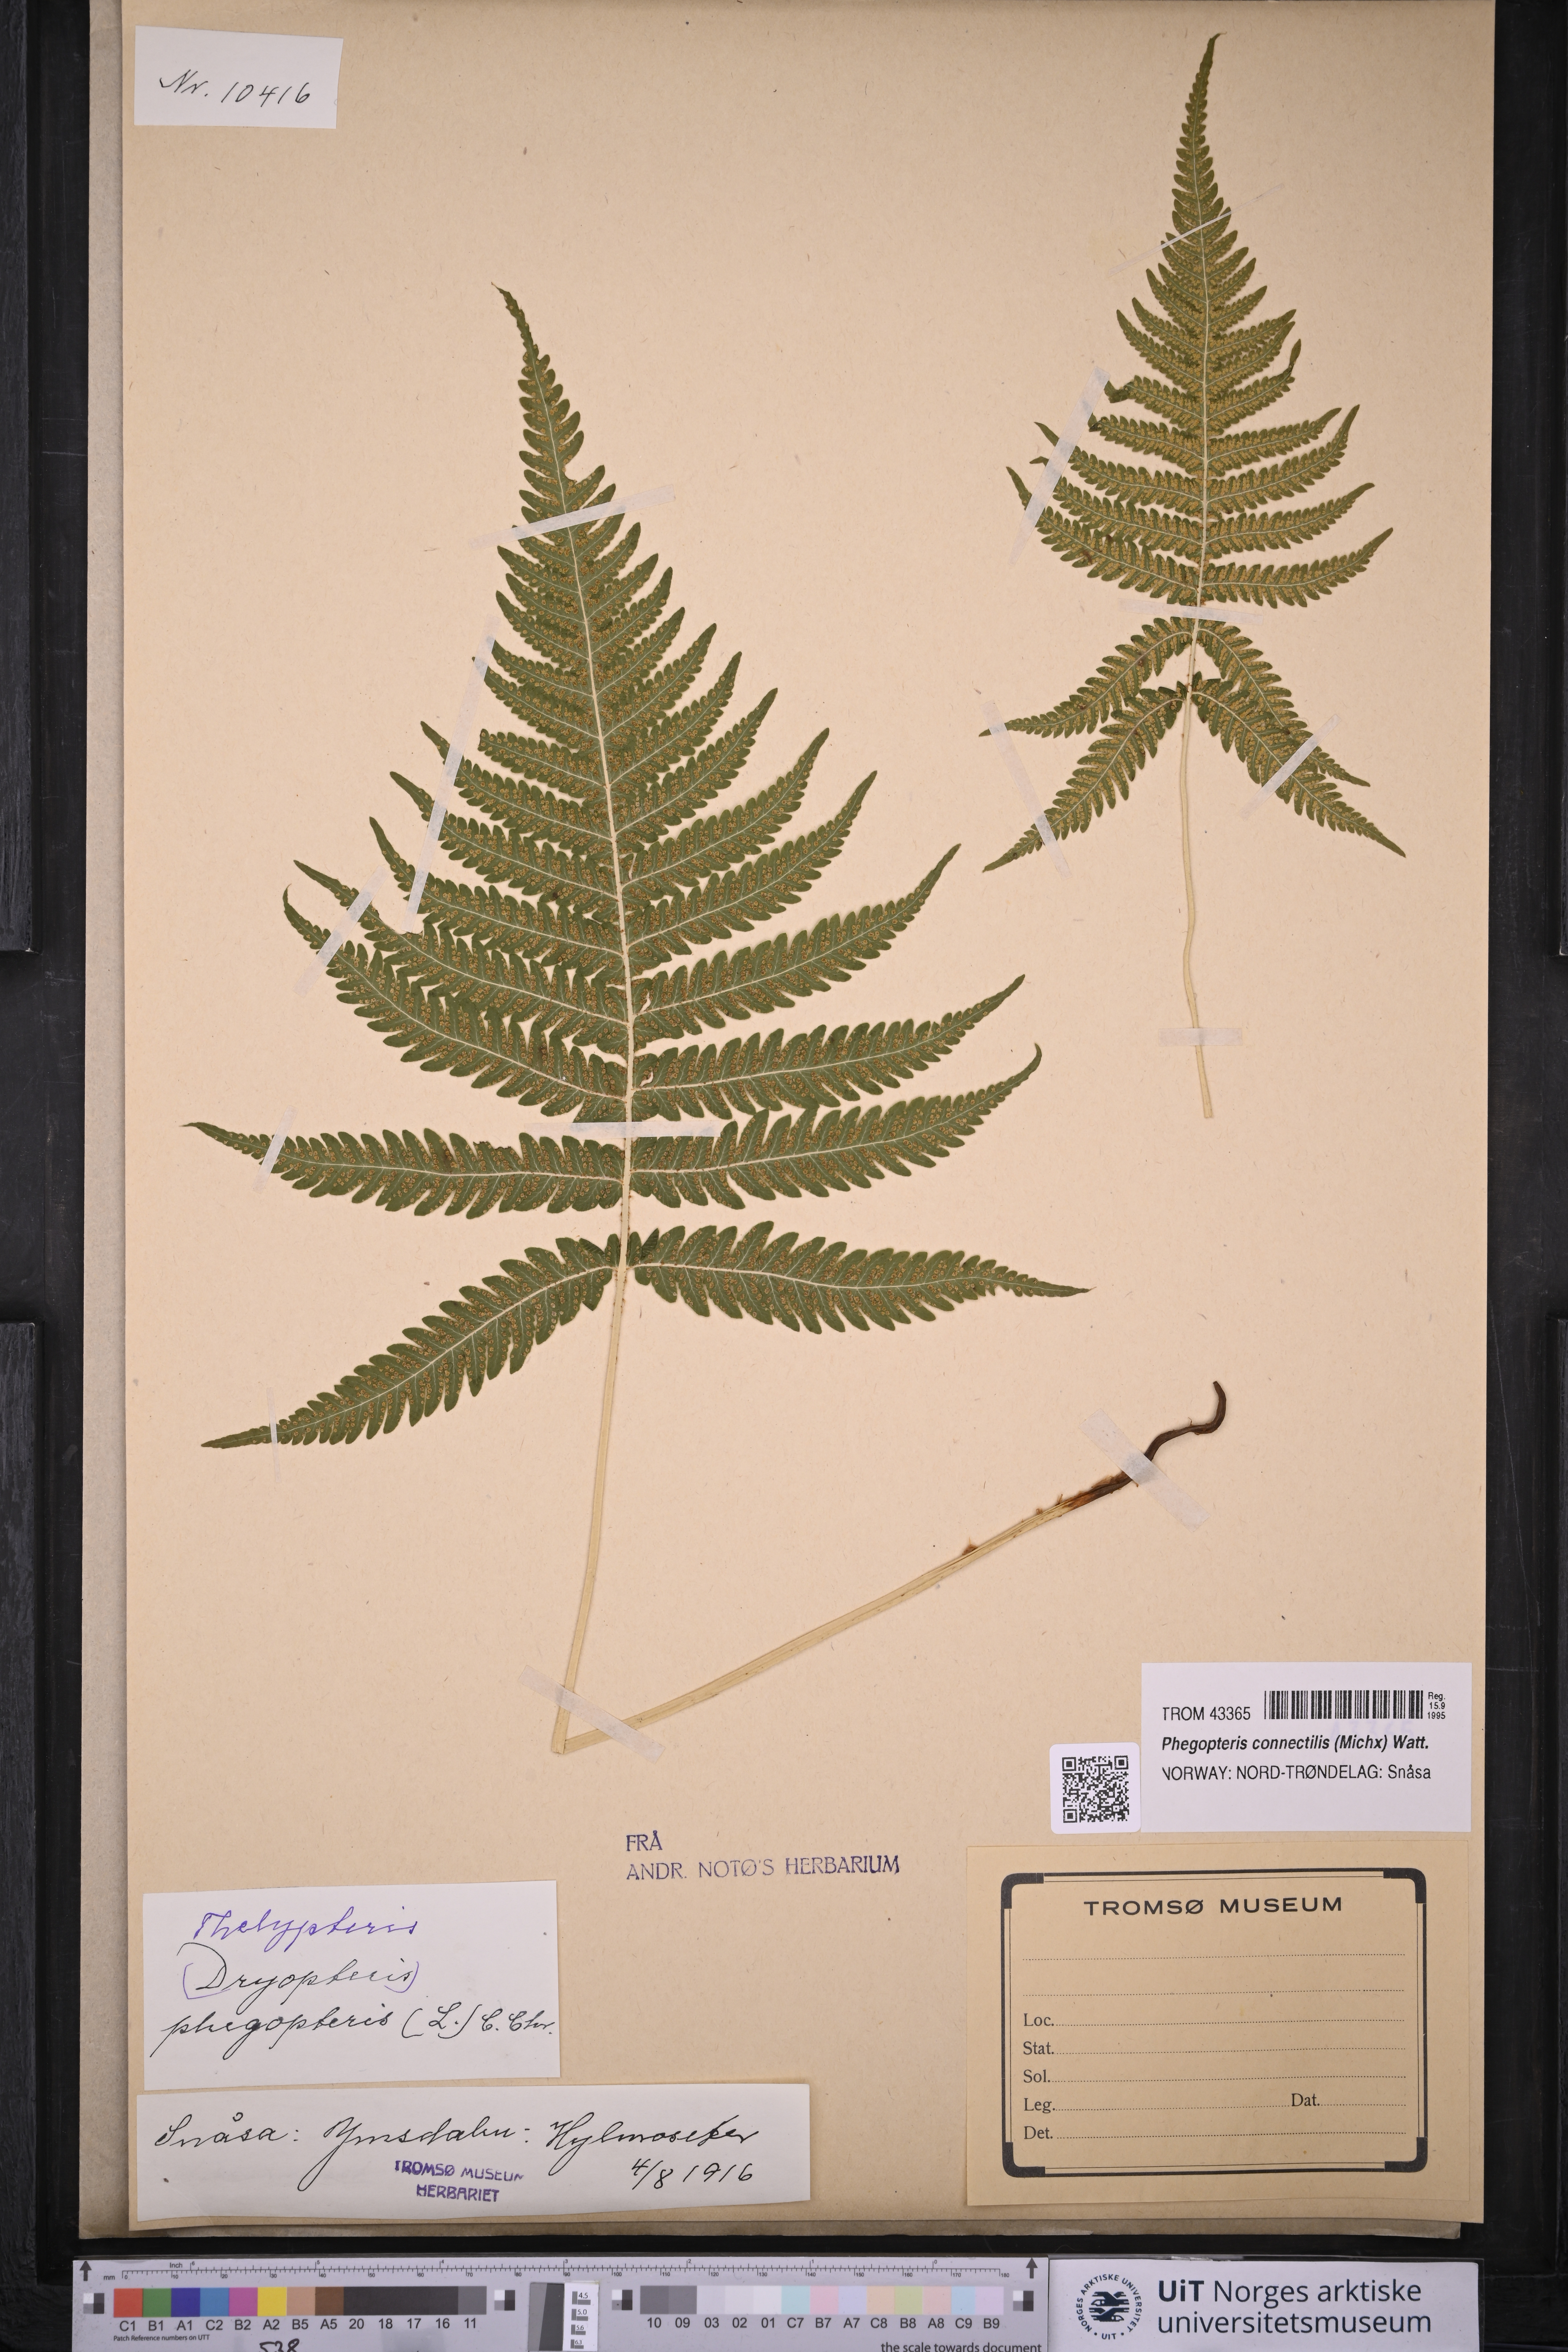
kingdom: Plantae
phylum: Tracheophyta
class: Polypodiopsida
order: Polypodiales
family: Thelypteridaceae
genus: Phegopteris
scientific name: Phegopteris connectilis
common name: Beech fern
